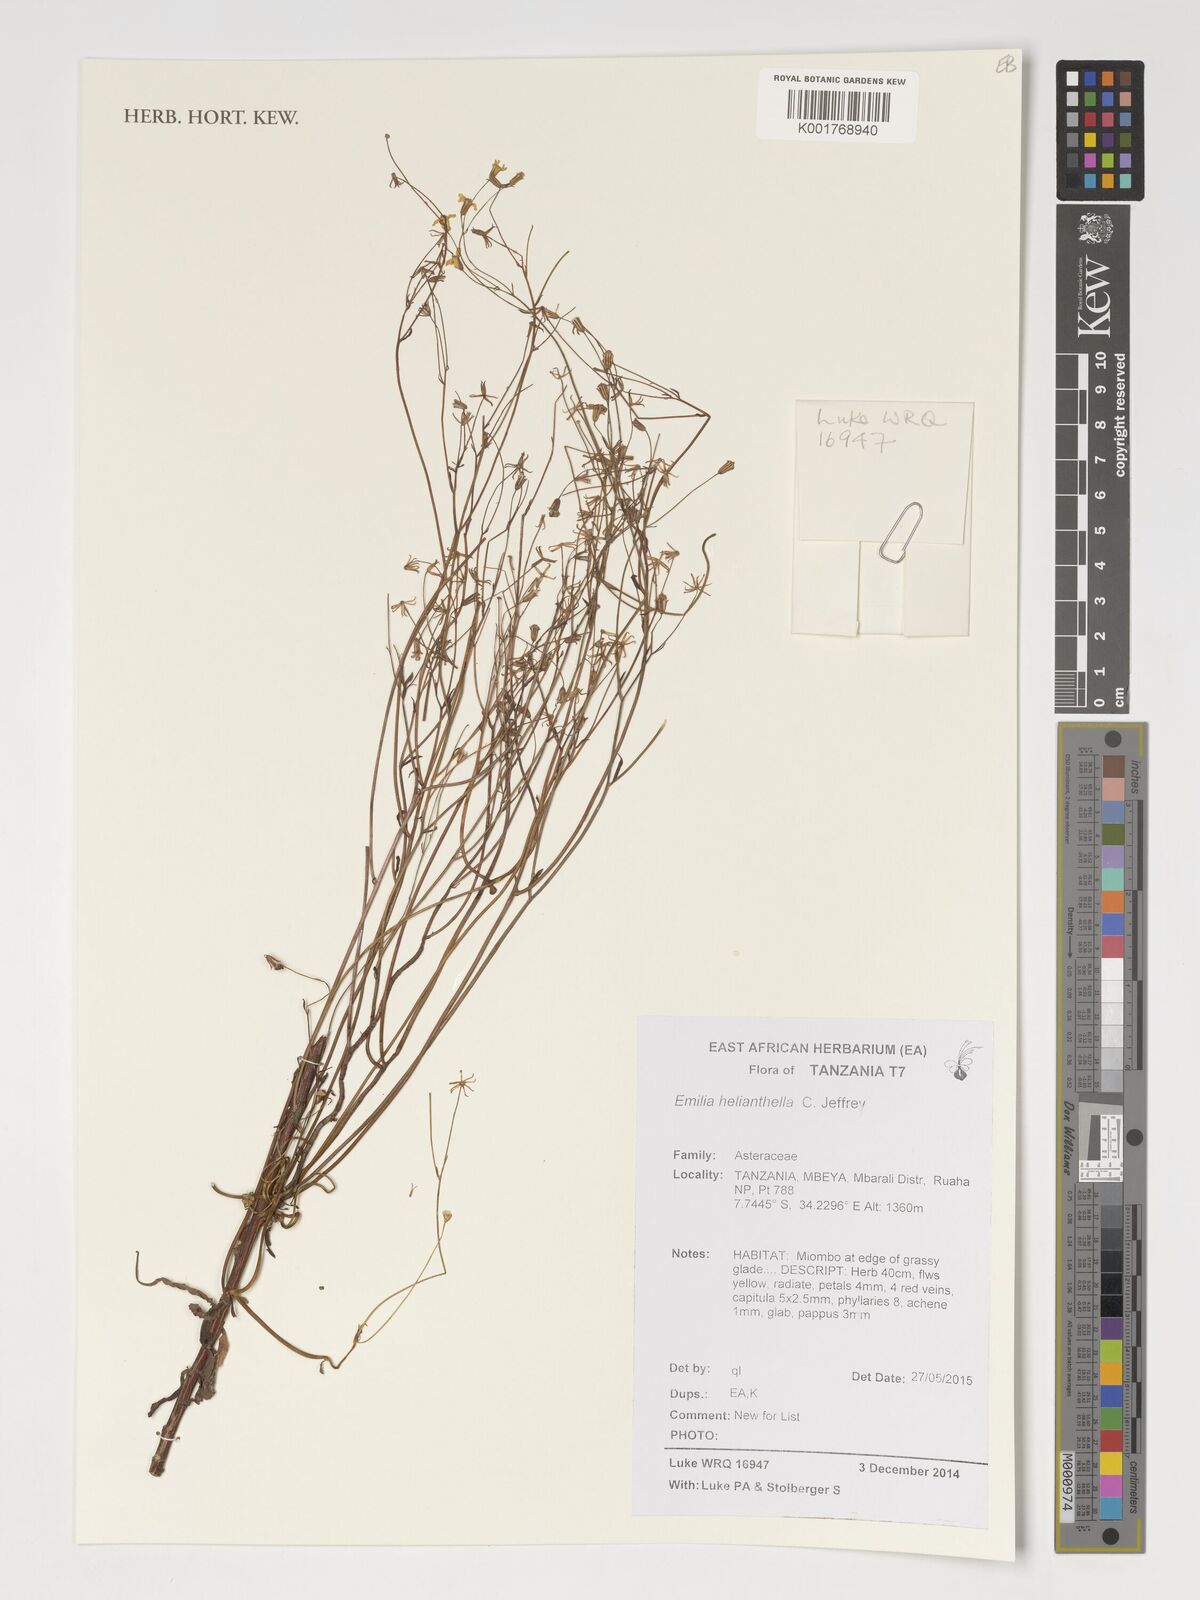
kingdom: Plantae
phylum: Tracheophyta
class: Magnoliopsida
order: Asterales
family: Asteraceae
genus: Emilia
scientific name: Emilia helianthella
